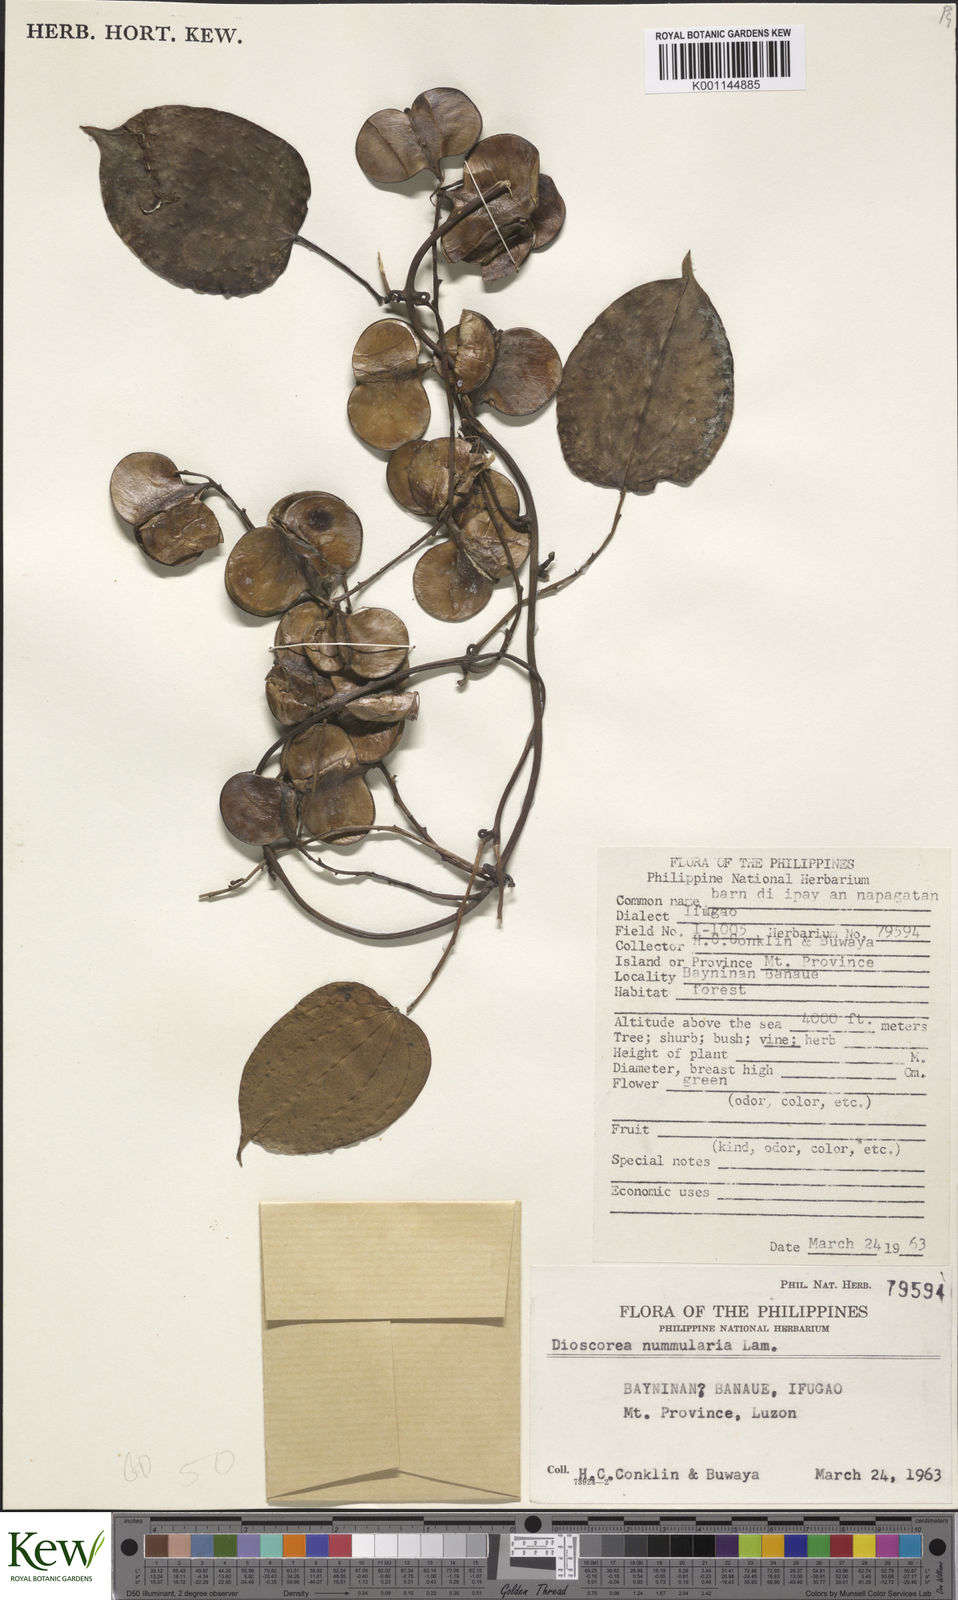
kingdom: Plantae
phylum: Tracheophyta
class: Liliopsida
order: Dioscoreales
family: Dioscoreaceae
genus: Dioscorea
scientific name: Dioscorea nummularia
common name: Pacific yam
